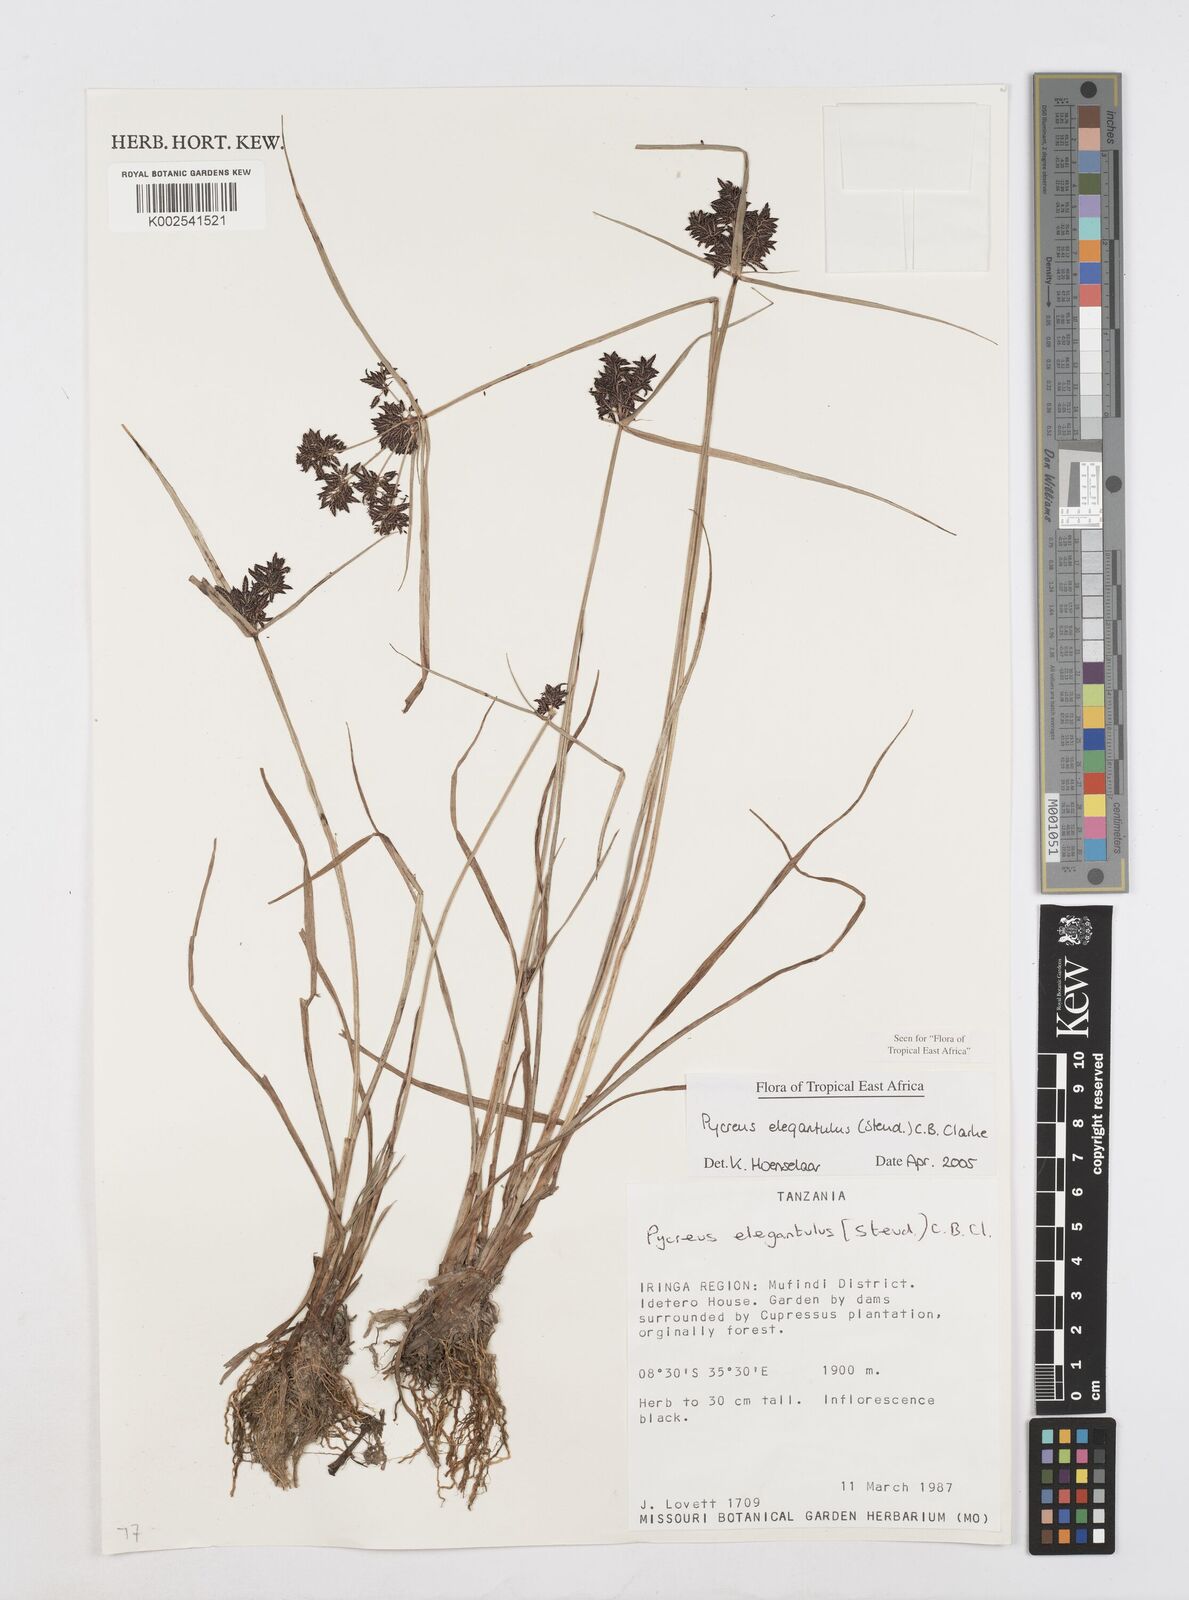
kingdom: Plantae
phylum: Tracheophyta
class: Liliopsida
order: Poales
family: Cyperaceae
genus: Cyperus
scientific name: Cyperus elegantulus
